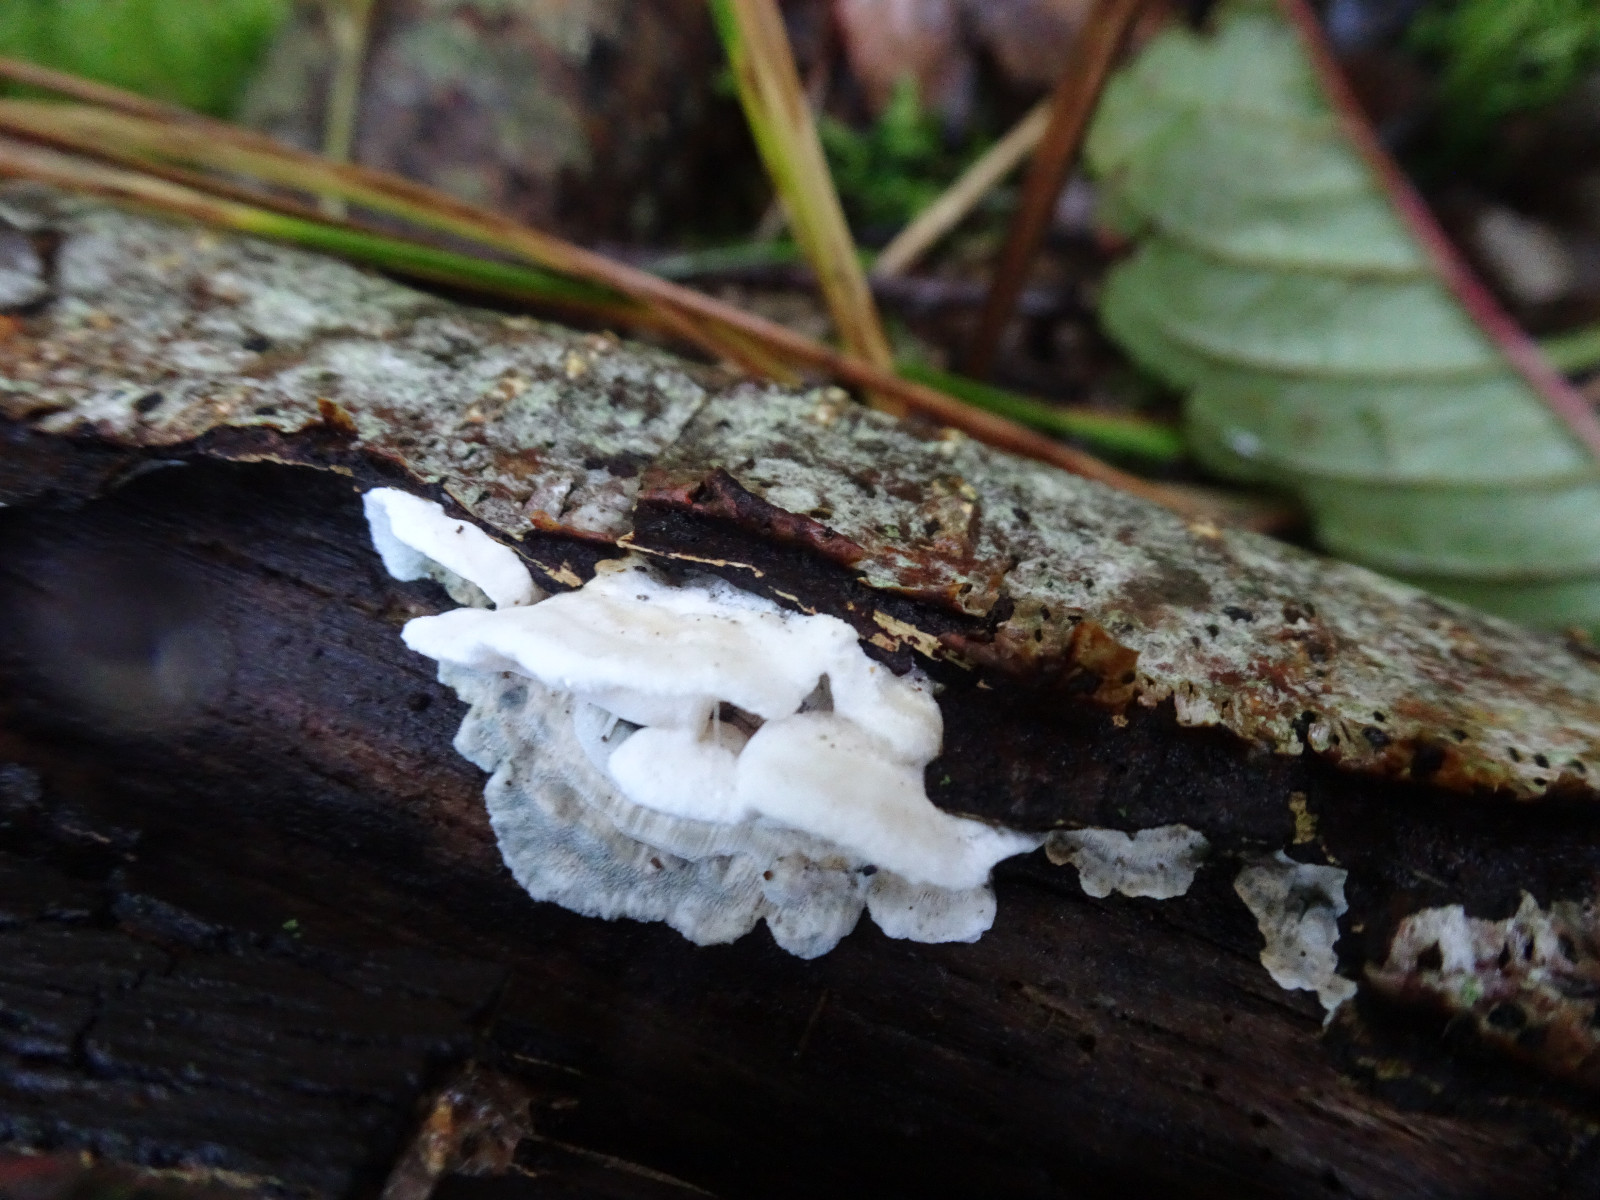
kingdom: Fungi
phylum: Basidiomycota
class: Agaricomycetes
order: Polyporales
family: Polyporaceae
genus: Cyanosporus
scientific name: Cyanosporus alni
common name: blegblå kødporesvamp
